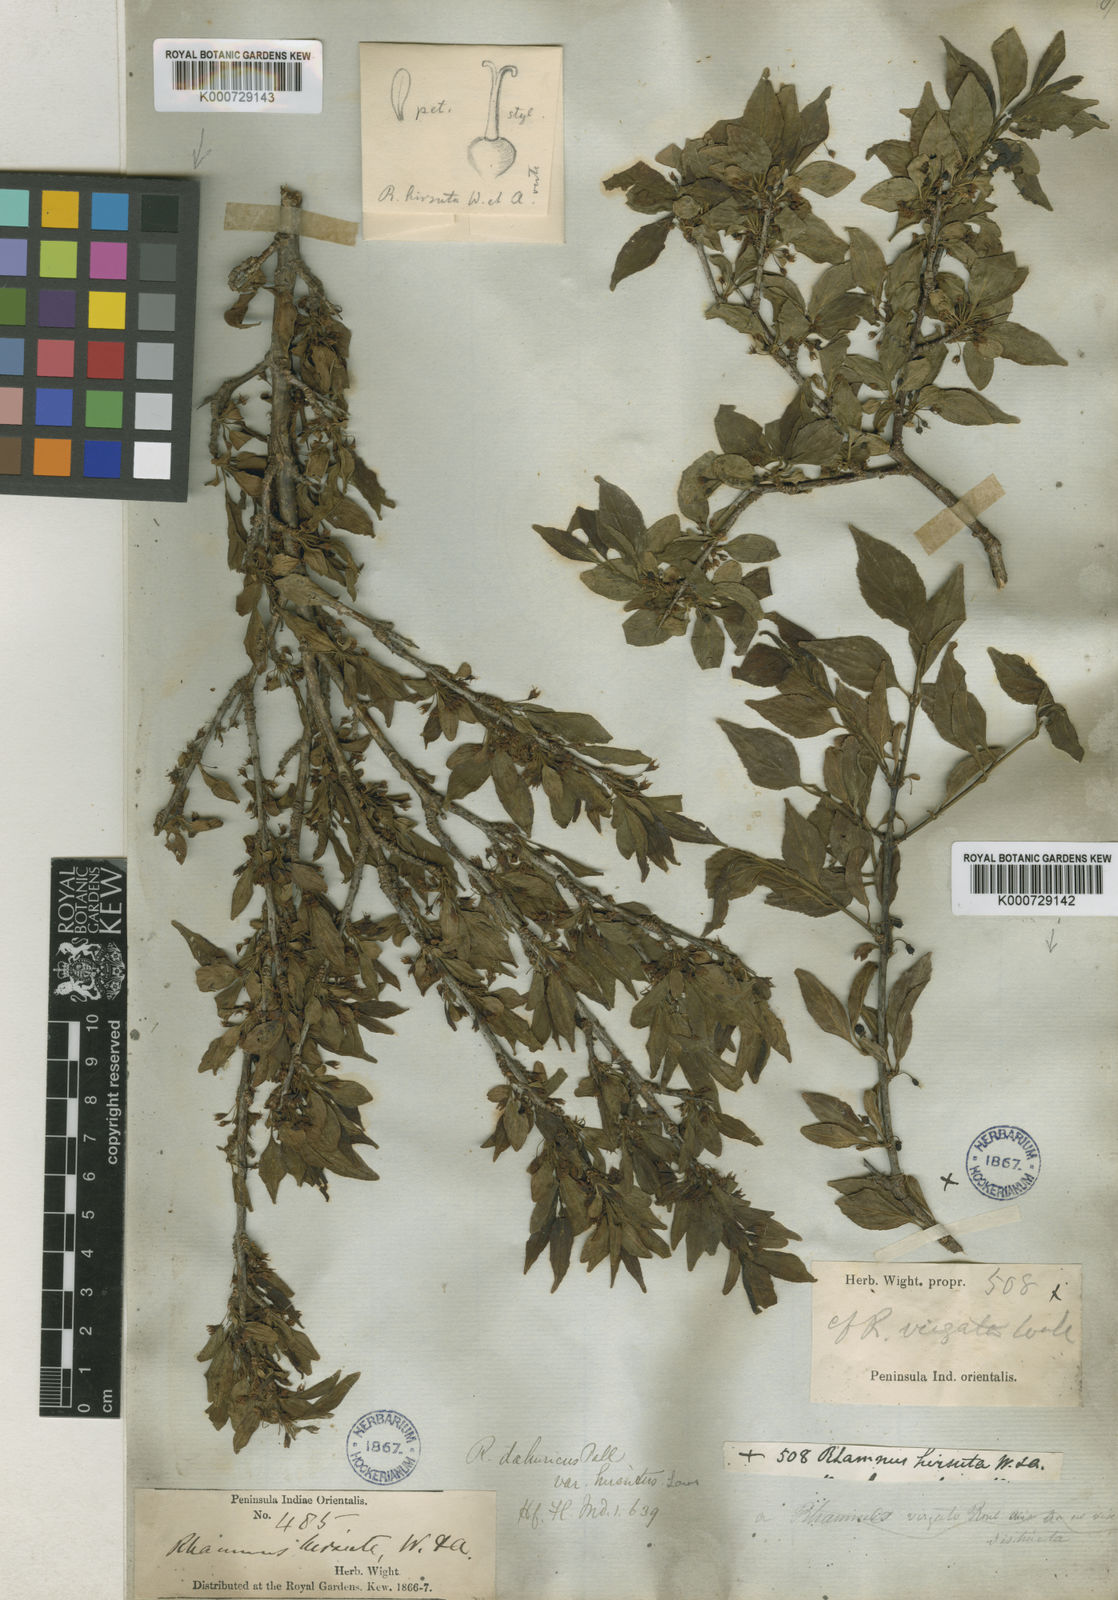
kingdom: Plantae
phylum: Tracheophyta
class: Magnoliopsida
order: Rosales
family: Rhamnaceae
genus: Rhamnus
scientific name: Rhamnus virgata
